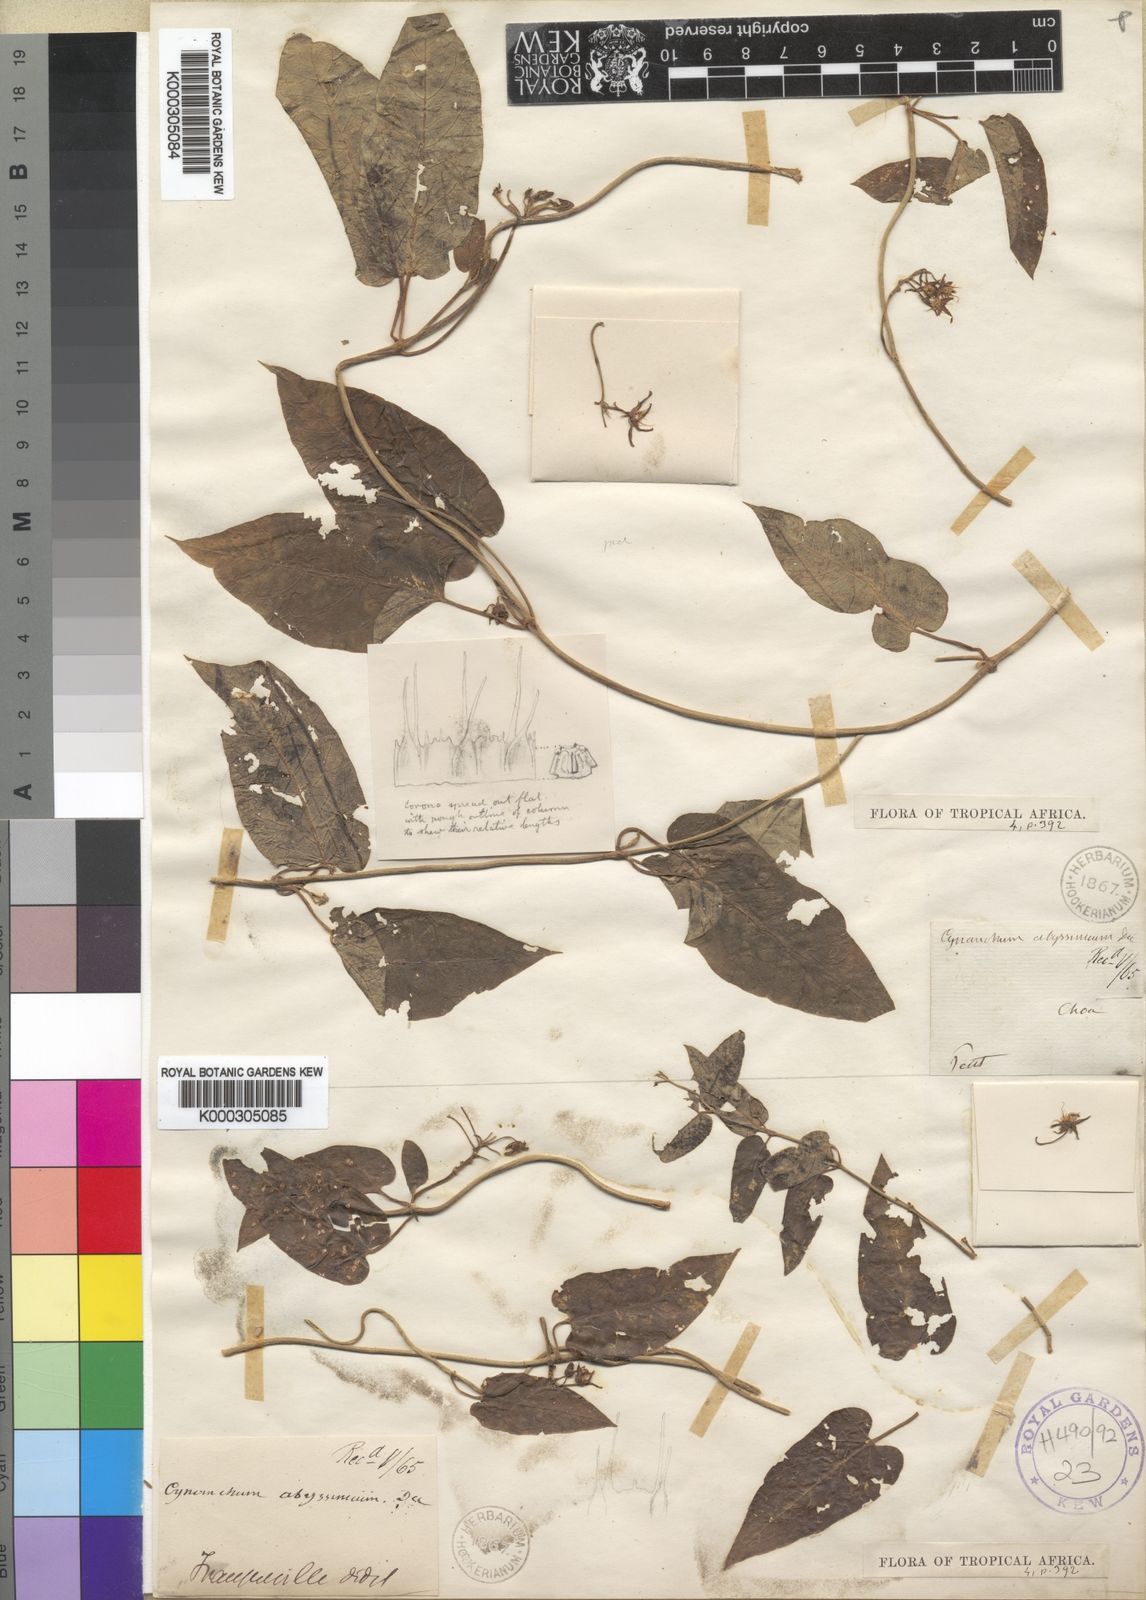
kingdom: Plantae
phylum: Tracheophyta
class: Magnoliopsida
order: Gentianales
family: Apocynaceae
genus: Cynanchum
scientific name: Cynanchum abyssinicum
